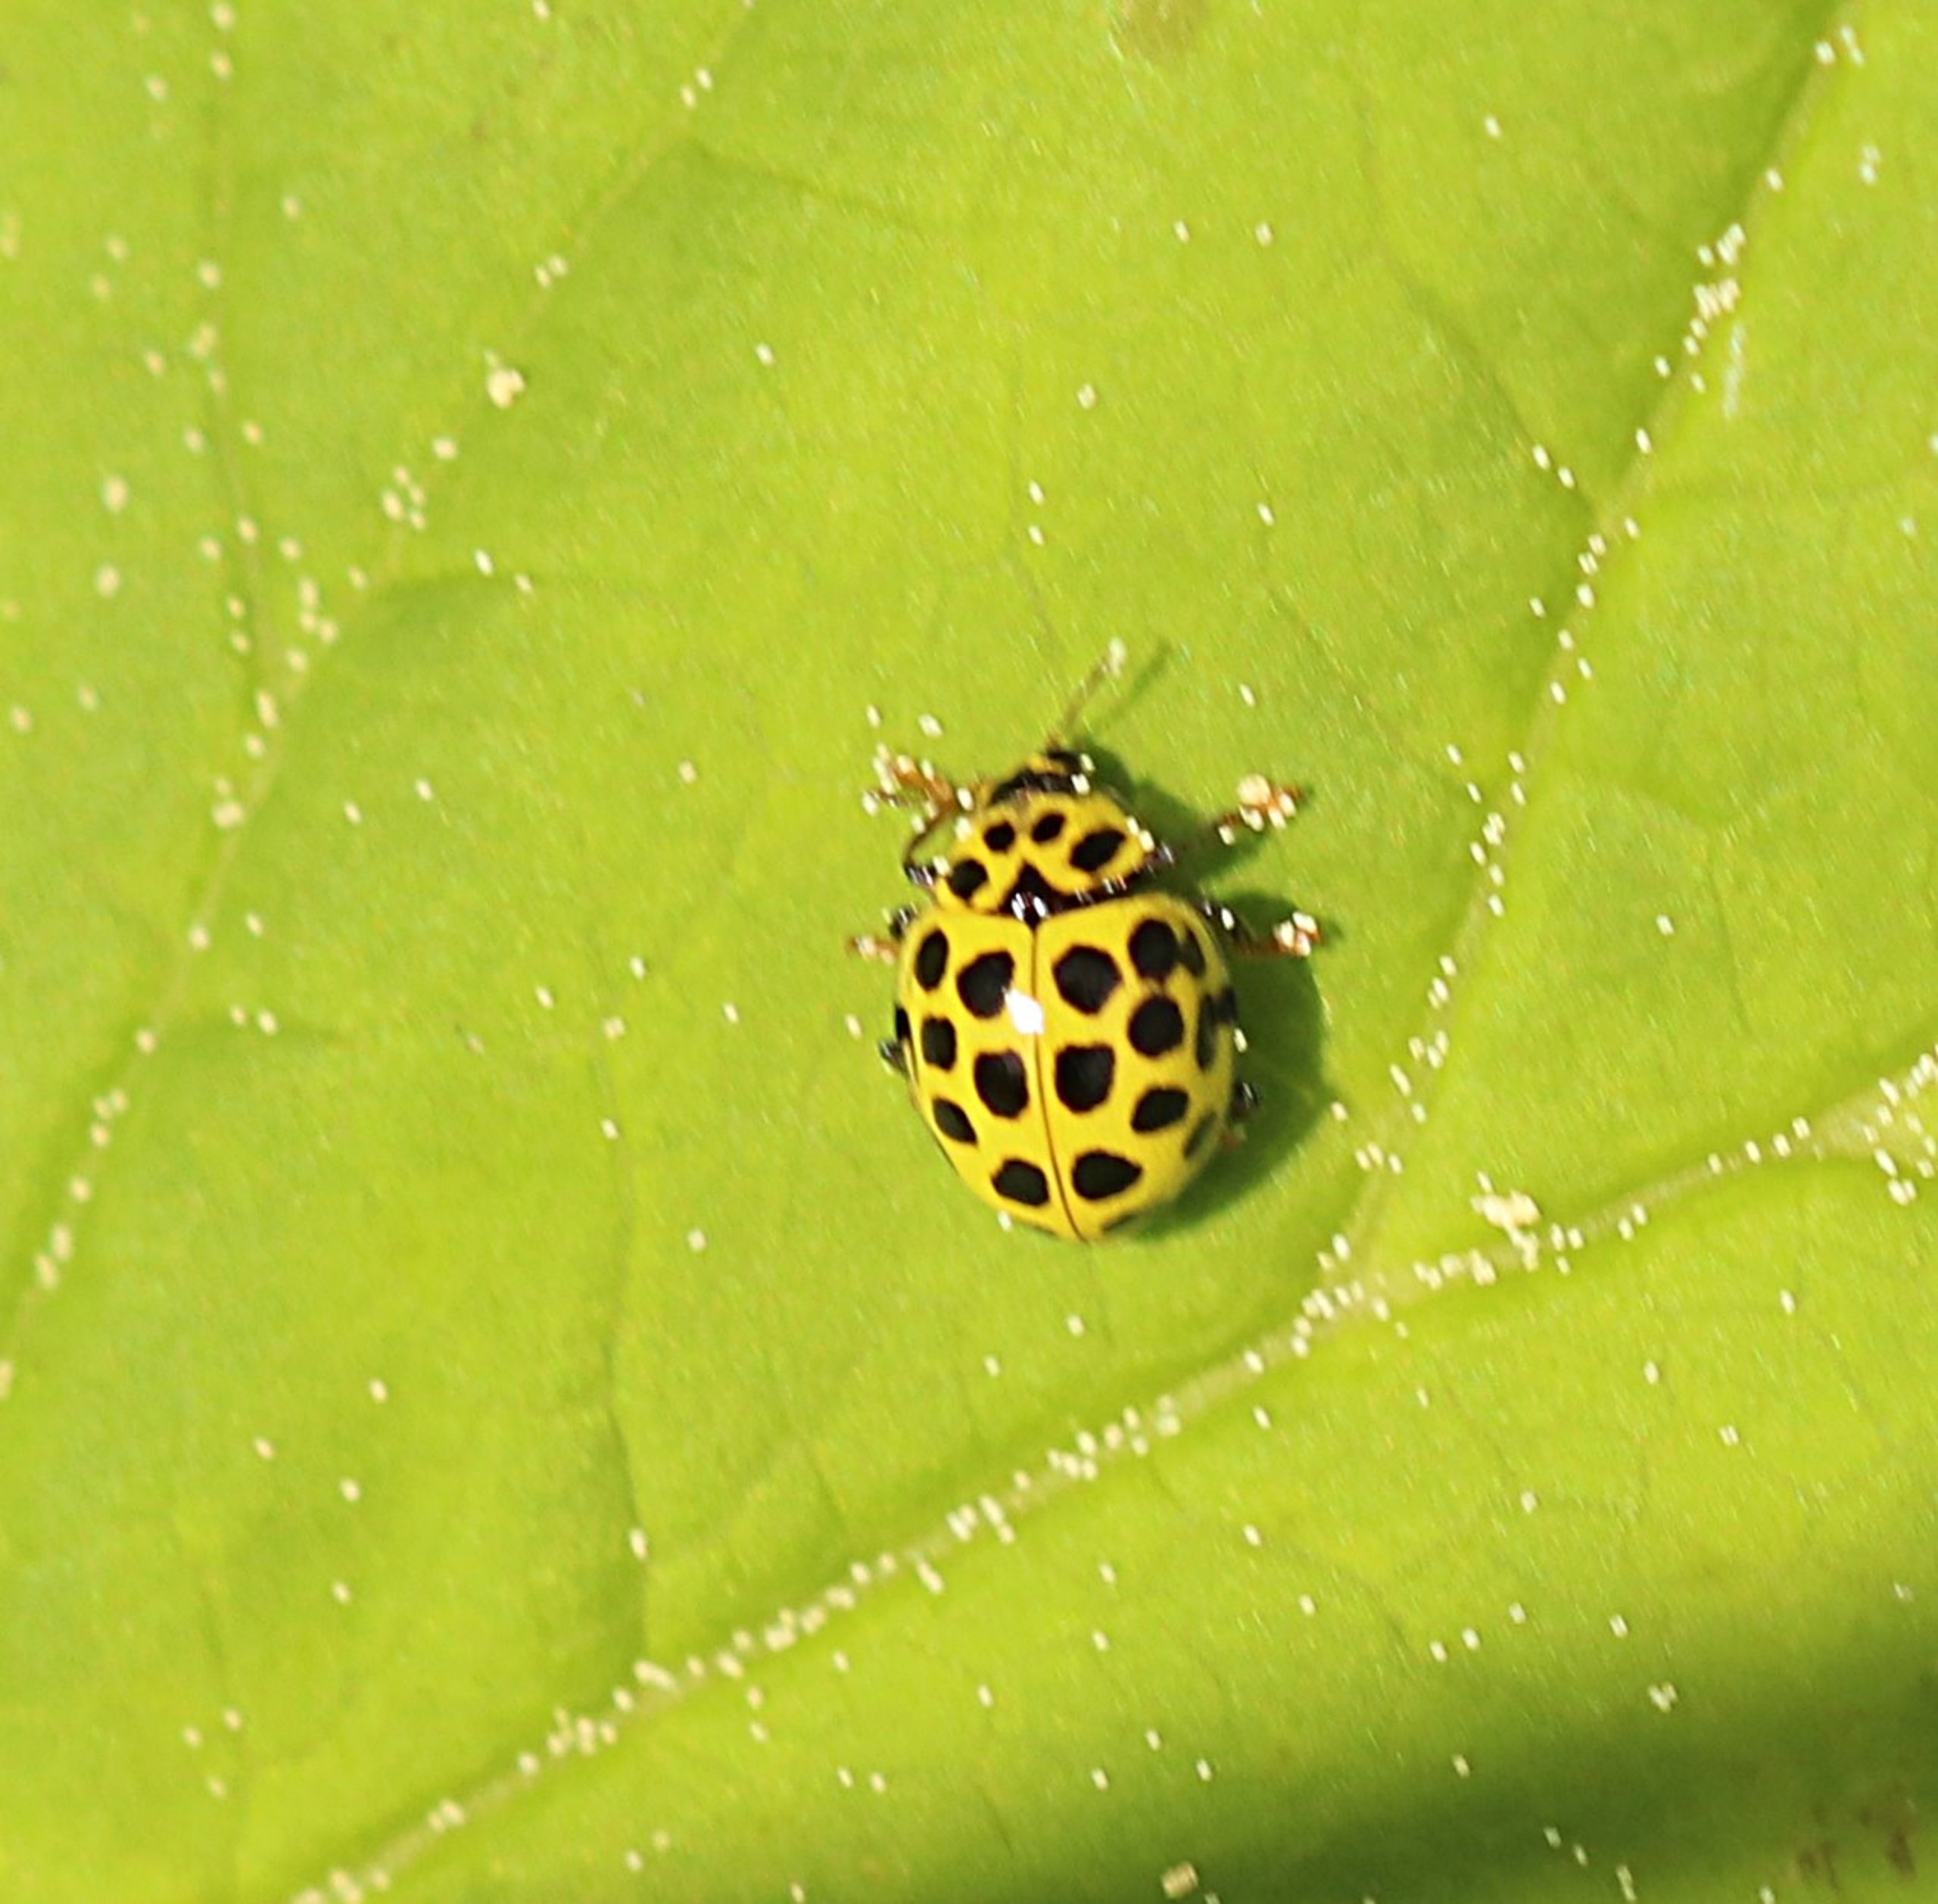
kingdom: Animalia
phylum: Arthropoda
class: Insecta
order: Coleoptera
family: Coccinellidae
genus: Psyllobora
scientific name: Psyllobora vigintiduopunctata
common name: Toogtyveplettet mariehøne
